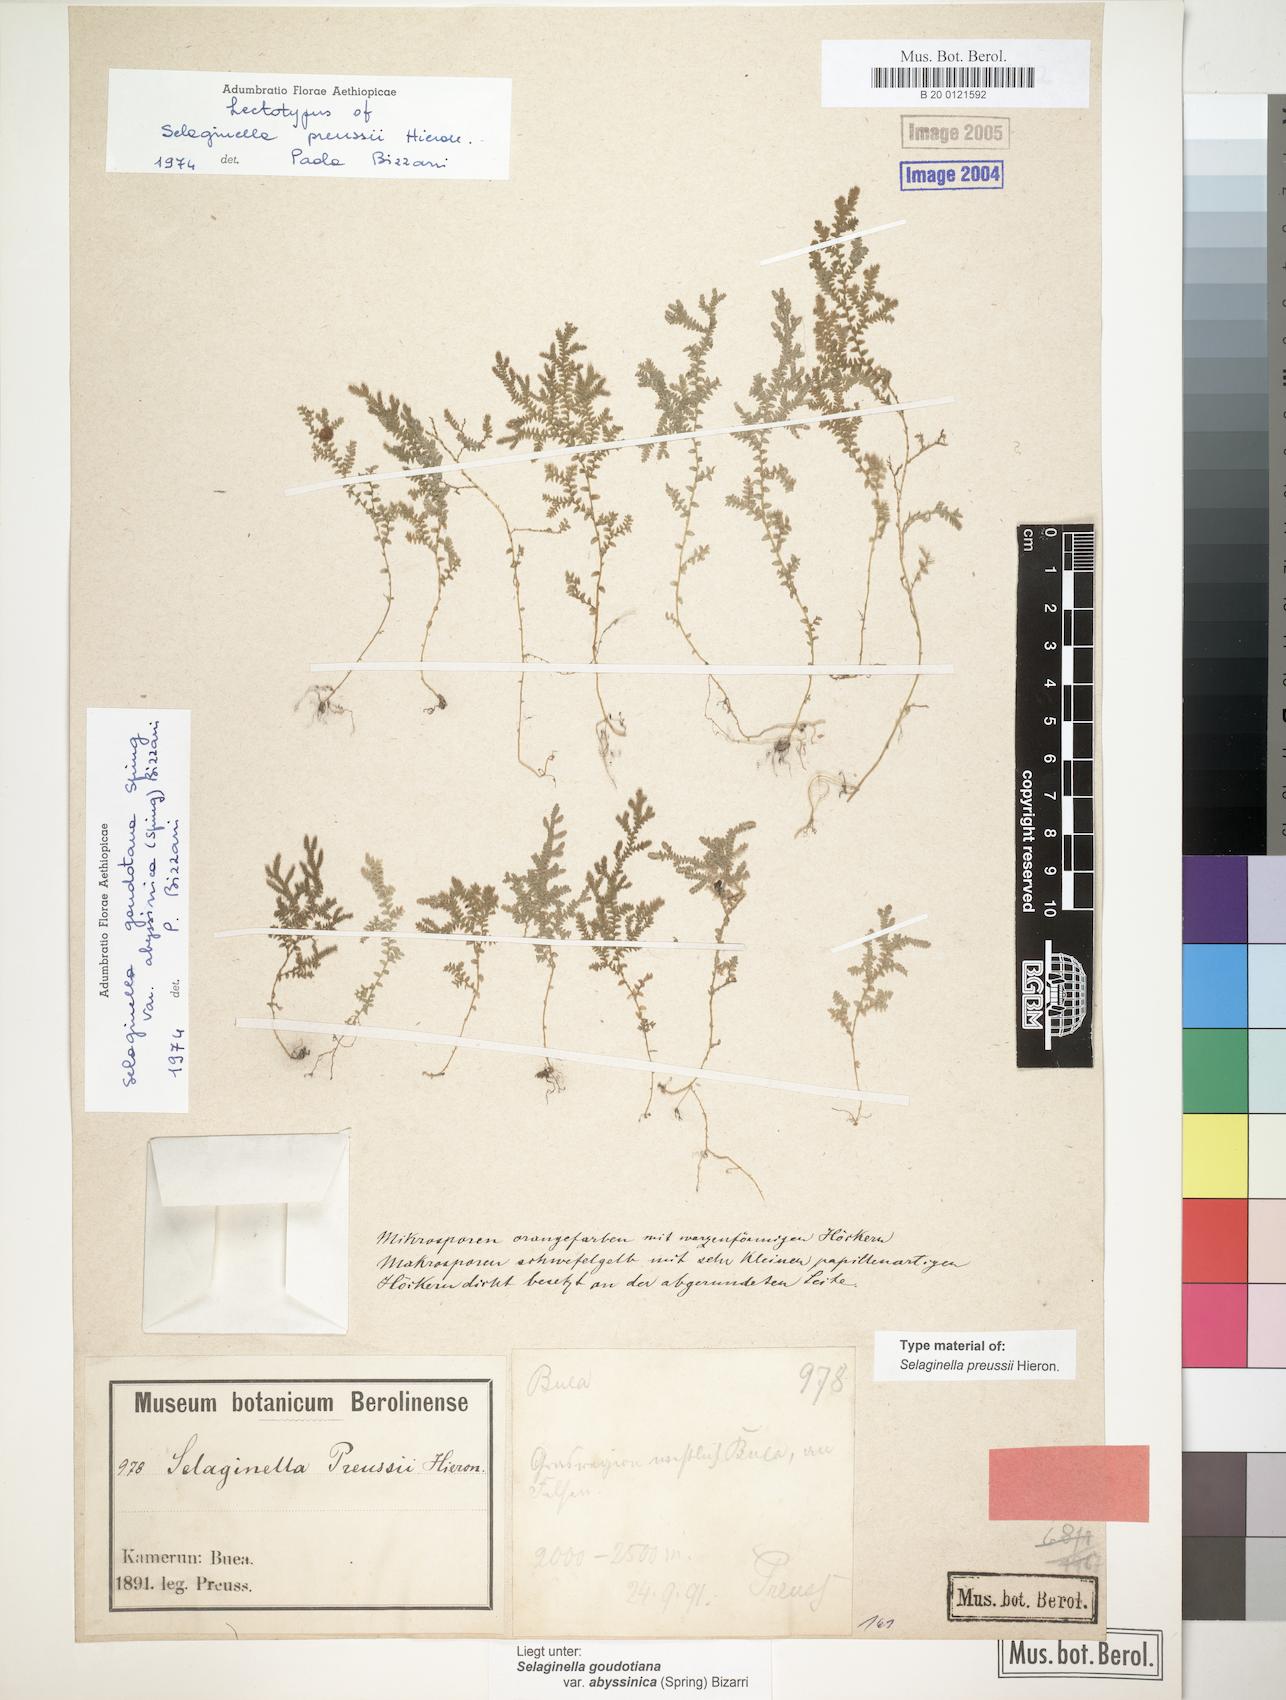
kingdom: Plantae
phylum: Tracheophyta
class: Lycopodiopsida
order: Selaginellales
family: Selaginellaceae
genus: Selaginella
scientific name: Selaginella goudotiana
